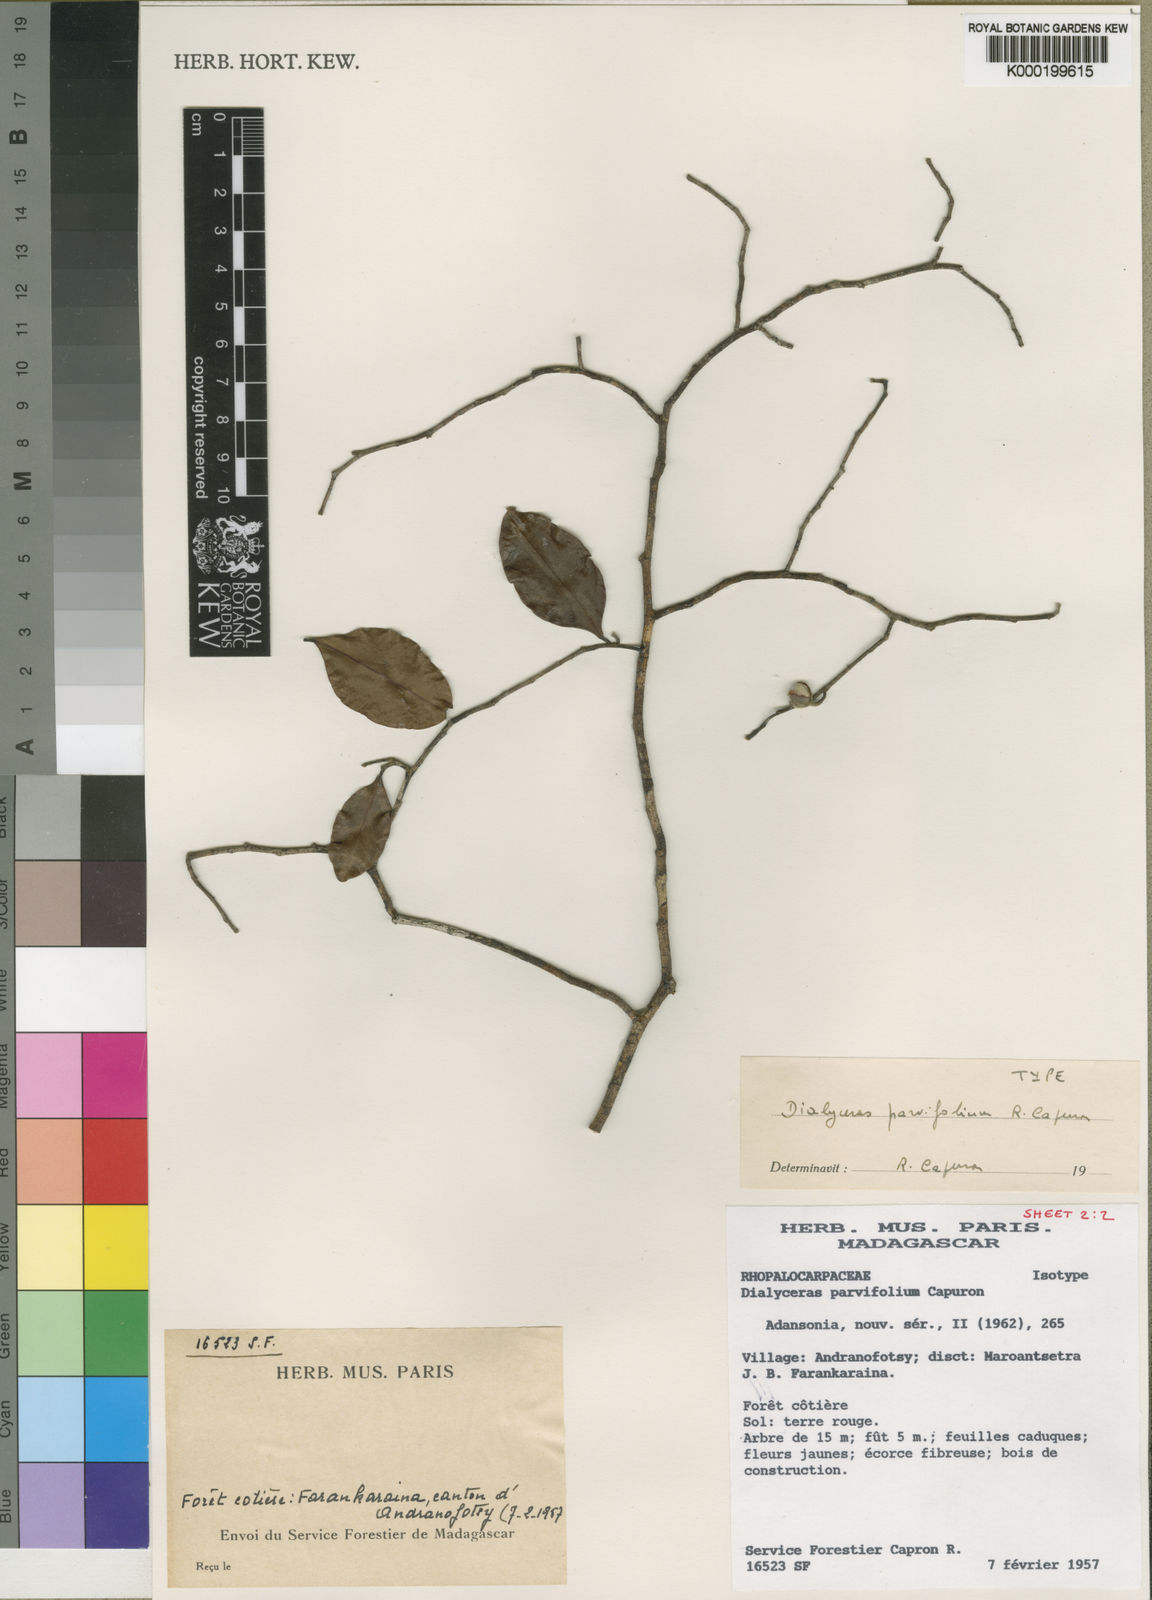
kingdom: Plantae
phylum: Tracheophyta
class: Magnoliopsida
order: Malvales
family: Sphaerosepalaceae
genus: Dialyceras
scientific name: Dialyceras parvifolium
